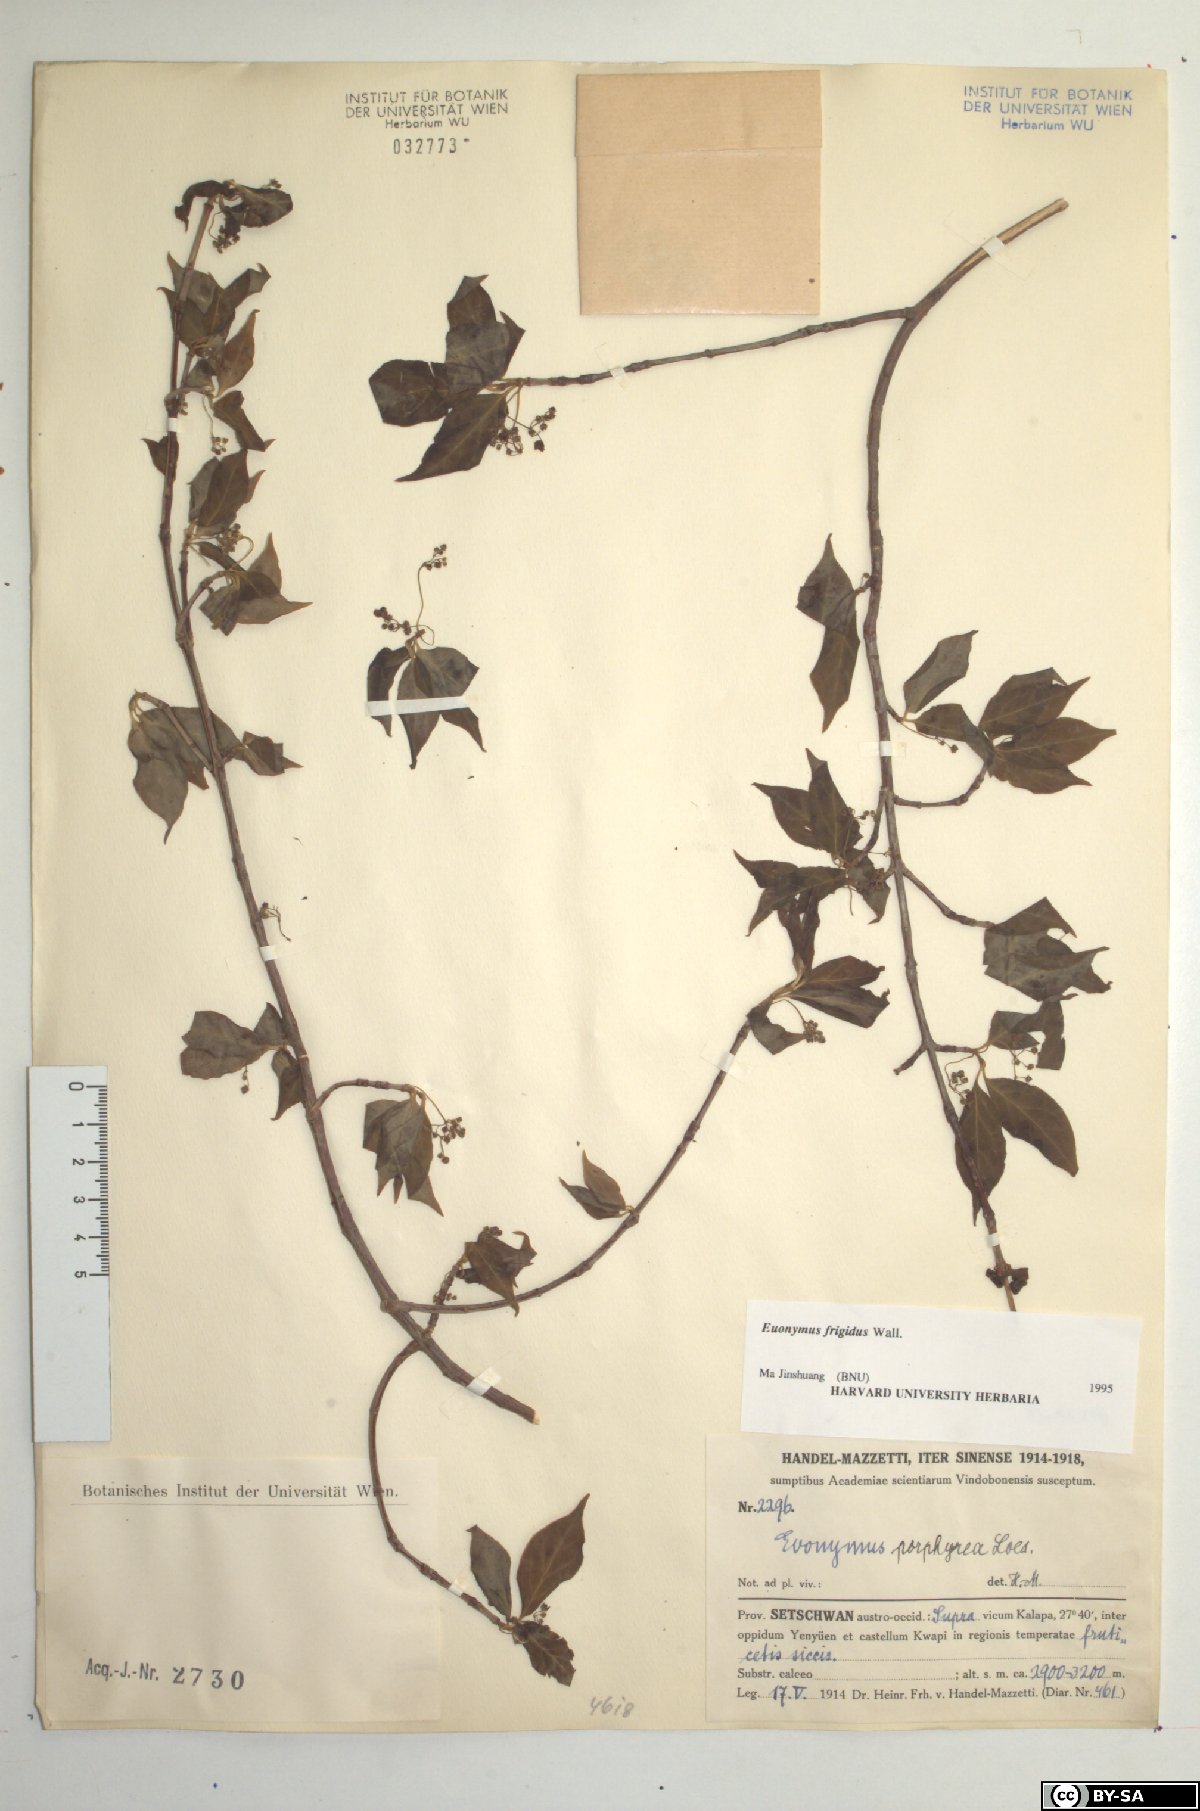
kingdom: Plantae
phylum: Tracheophyta
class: Magnoliopsida
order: Celastrales
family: Celastraceae
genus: Euonymus
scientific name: Euonymus frigidus
